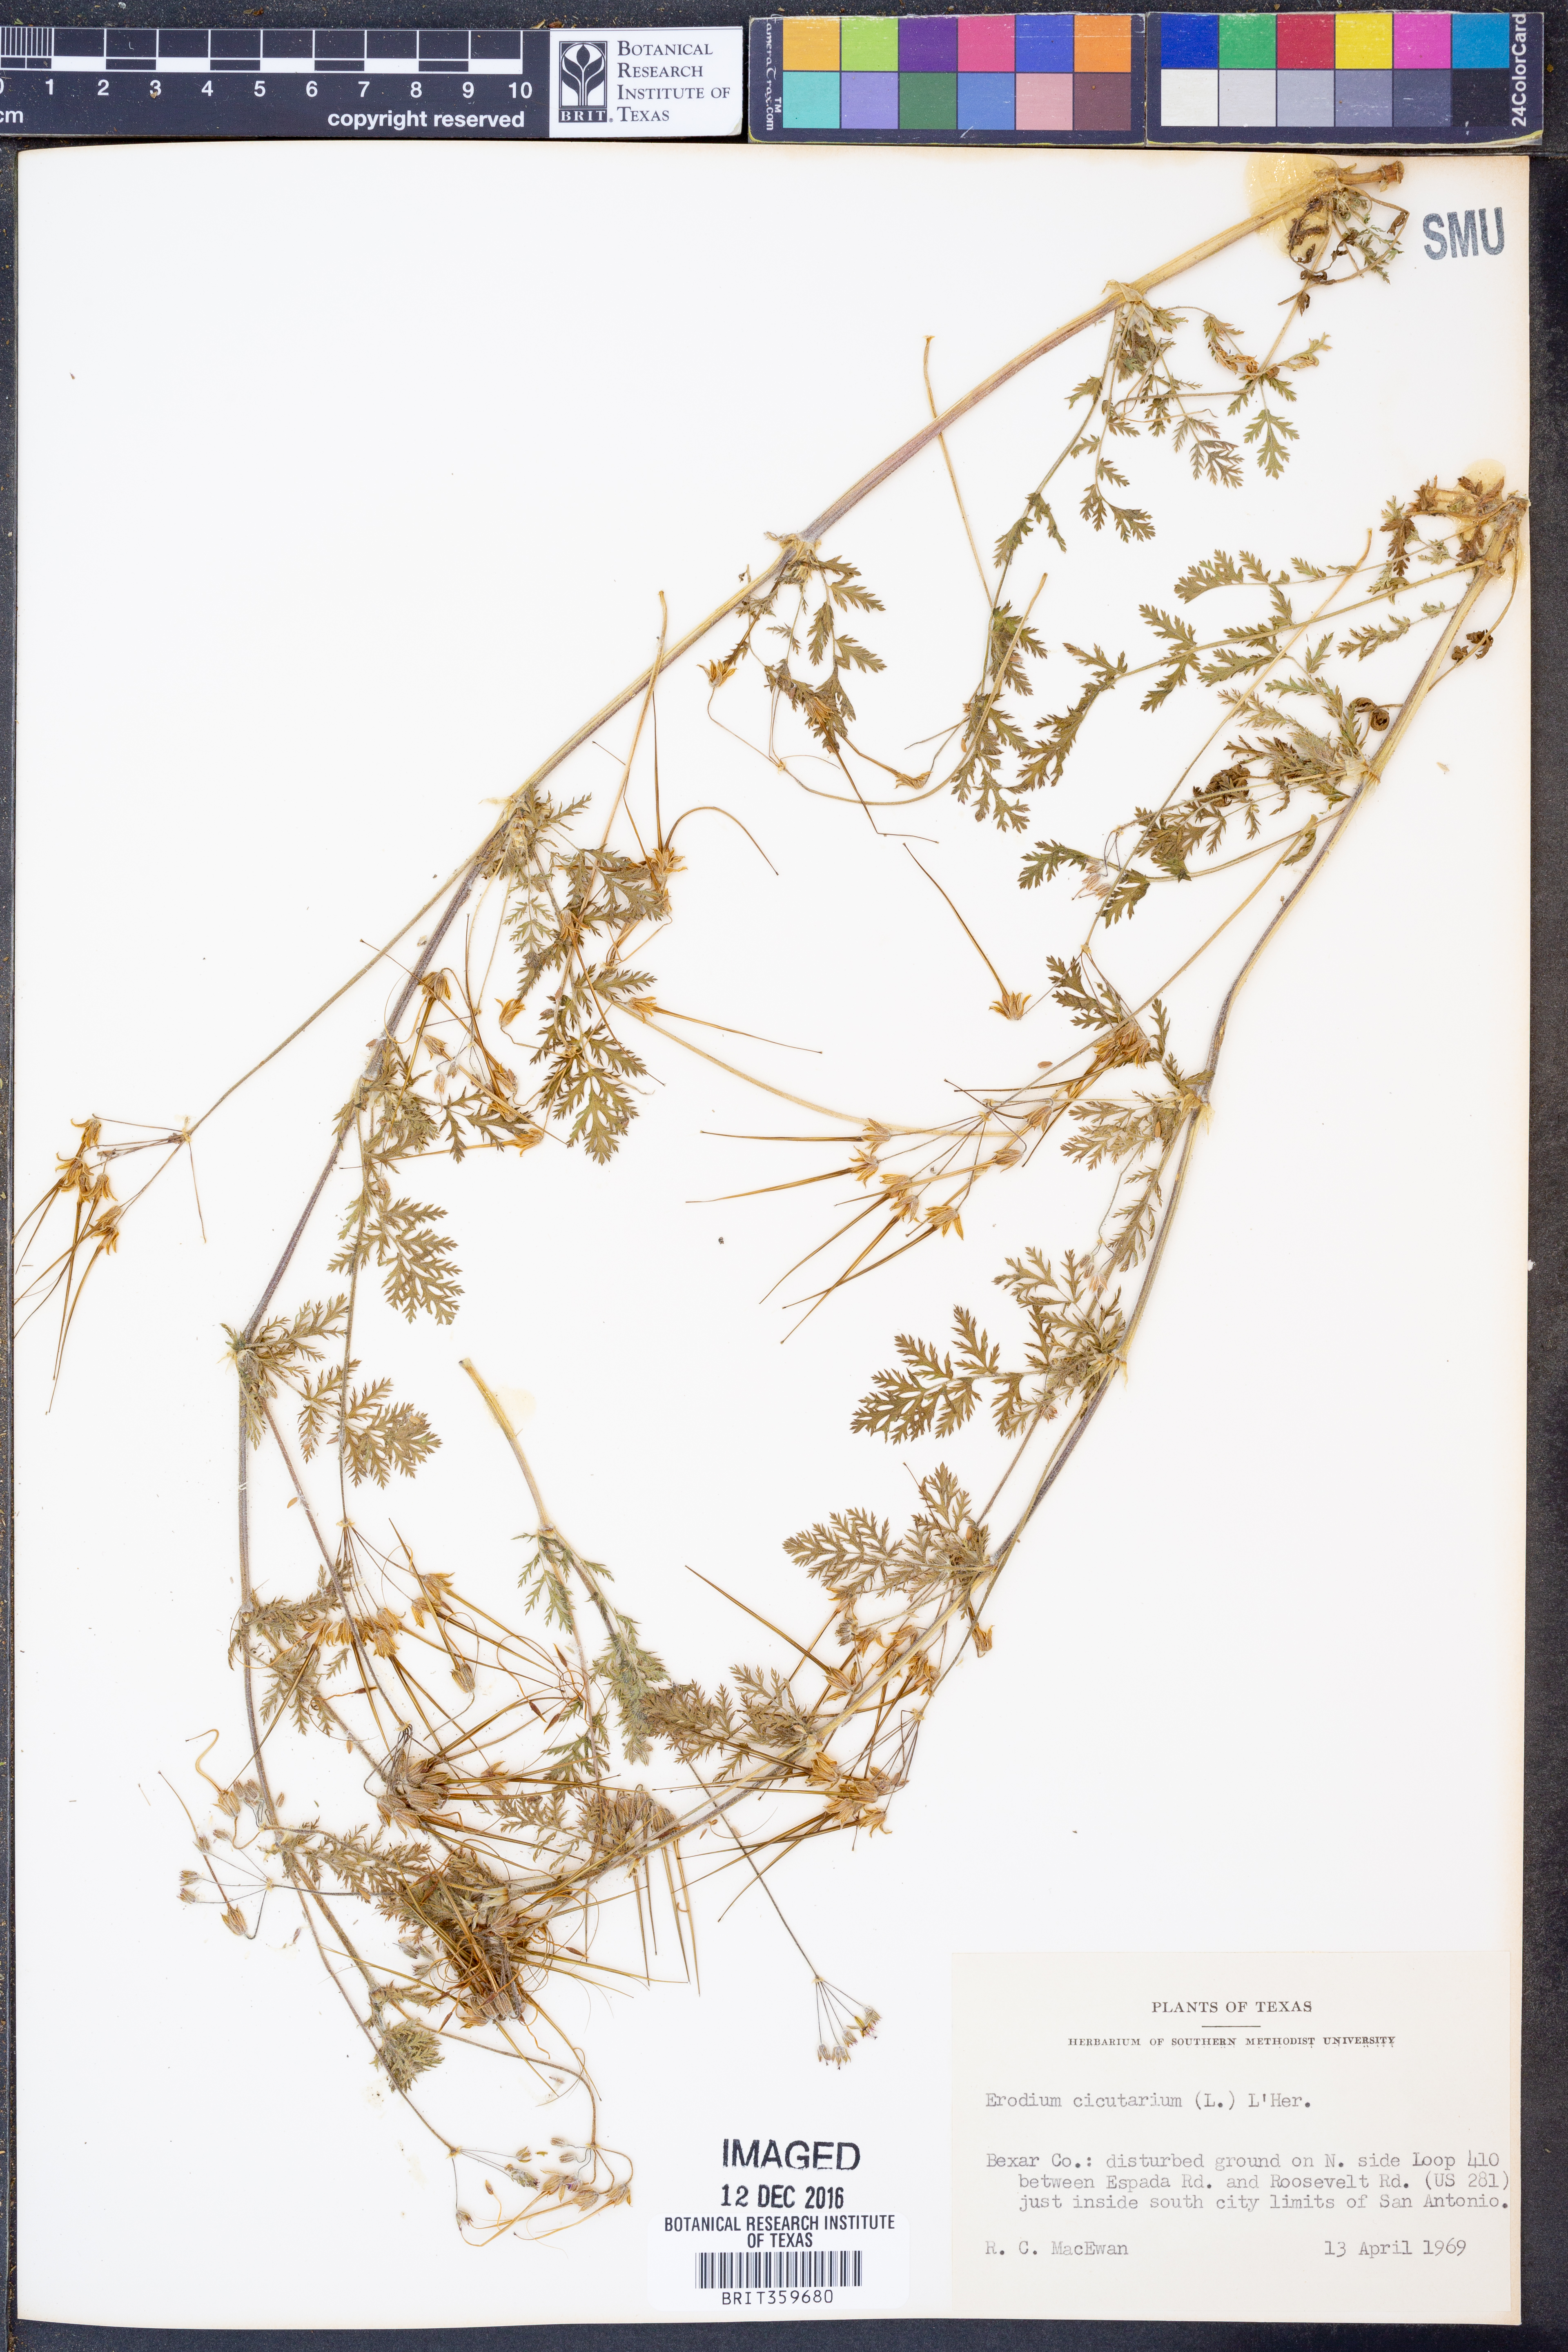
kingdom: Plantae
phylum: Tracheophyta
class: Magnoliopsida
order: Geraniales
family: Geraniaceae
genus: Erodium
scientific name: Erodium cicutarium
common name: Common stork's-bill
